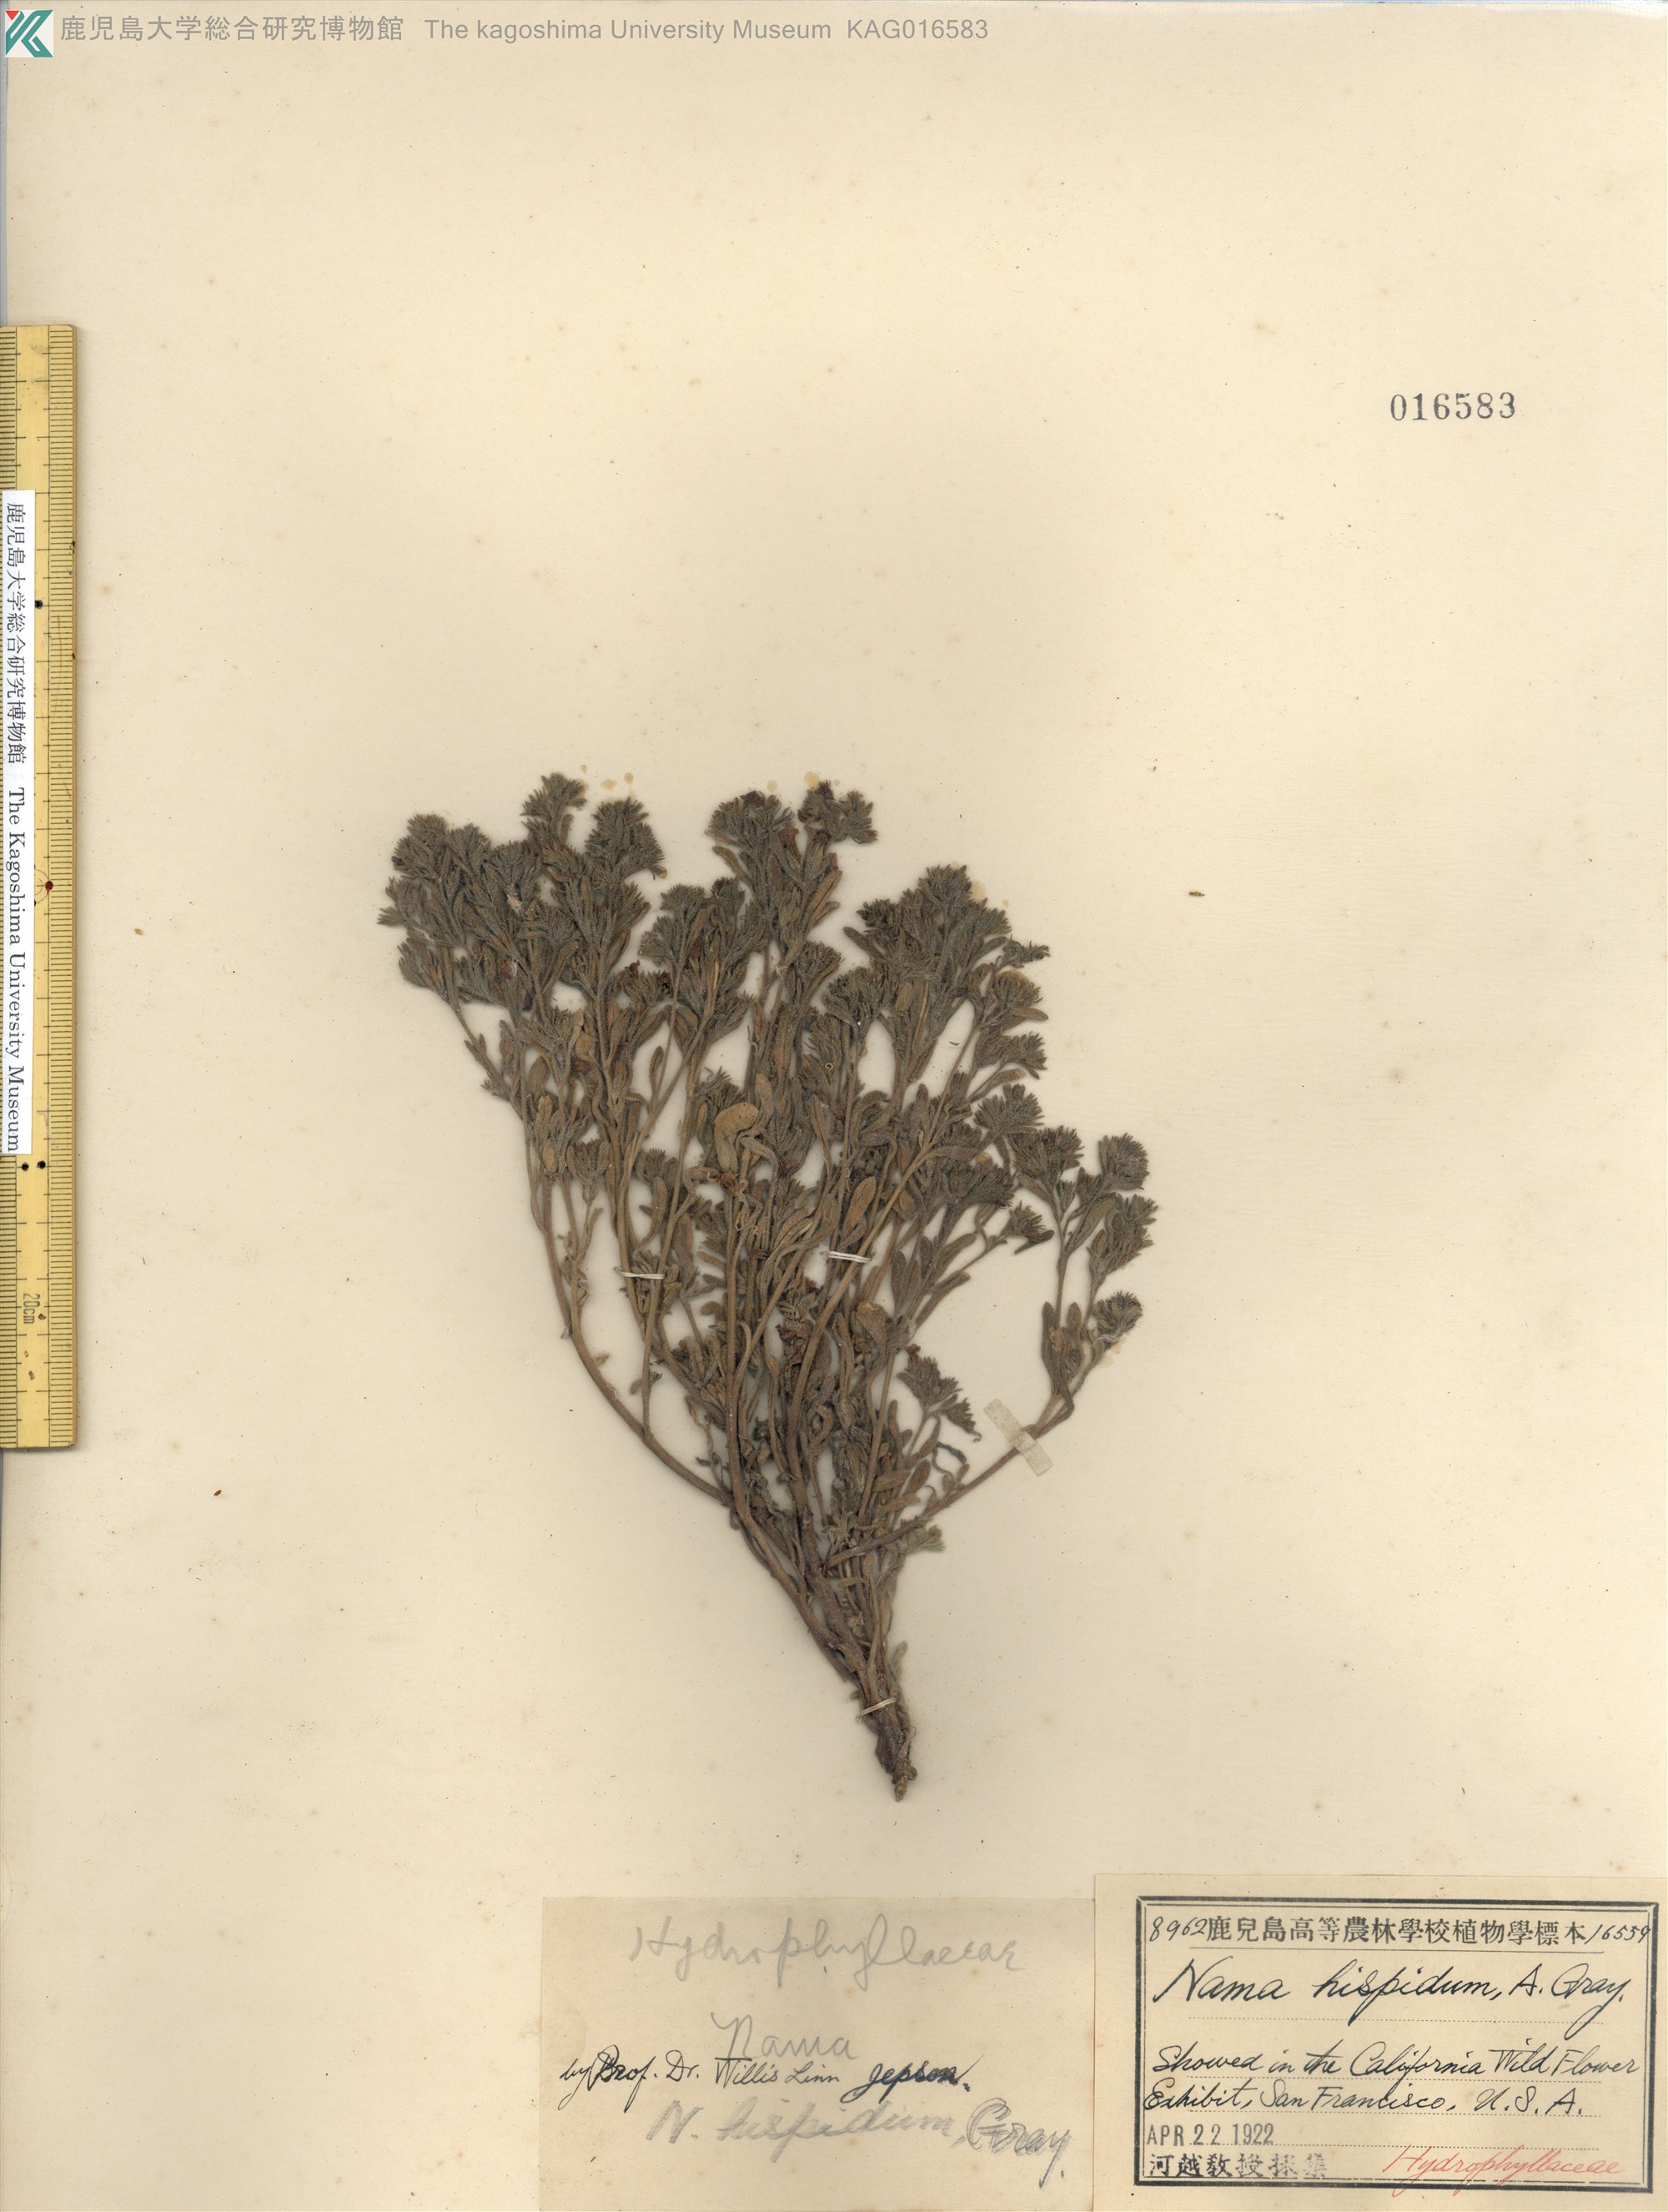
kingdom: Plantae
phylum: Tracheophyta
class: Magnoliopsida
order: Boraginales
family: Namaceae
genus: Nama
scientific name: Nama hispida
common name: Bristly nama
